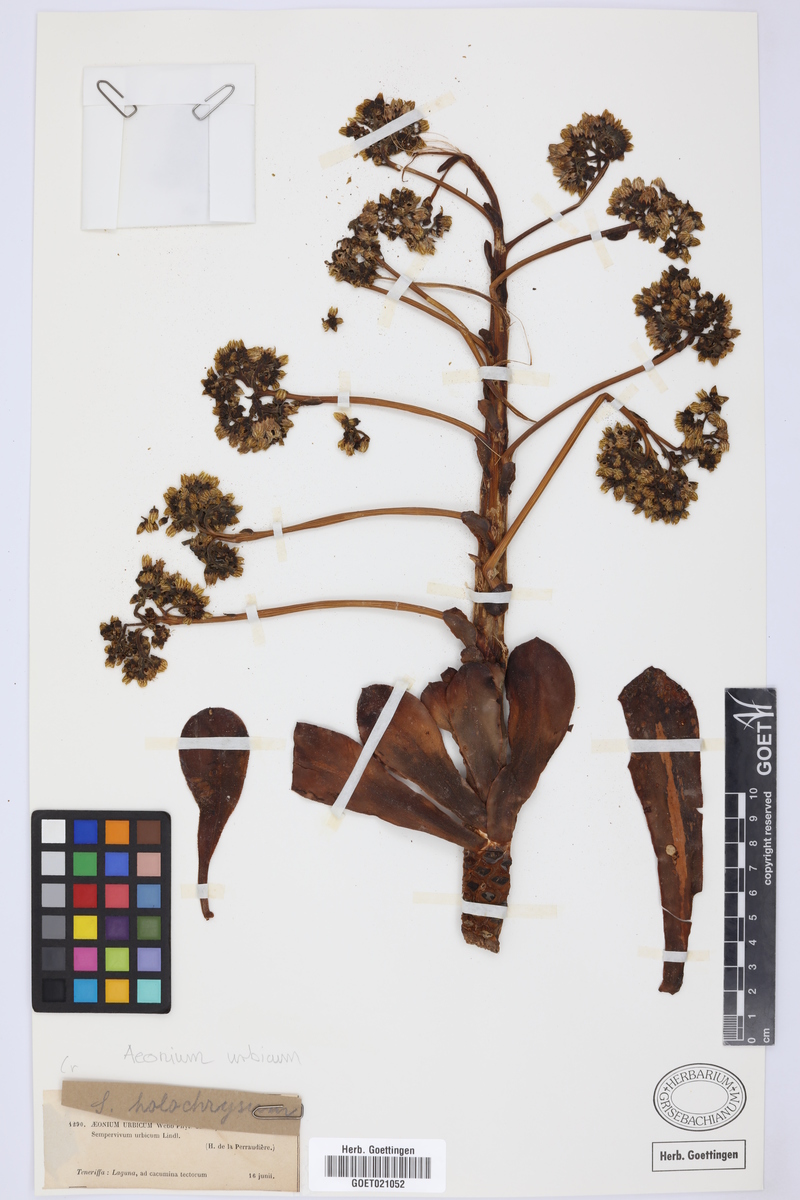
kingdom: Plantae
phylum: Tracheophyta
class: Magnoliopsida
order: Saxifragales
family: Crassulaceae
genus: Aeonium
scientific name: Aeonium urbicum
